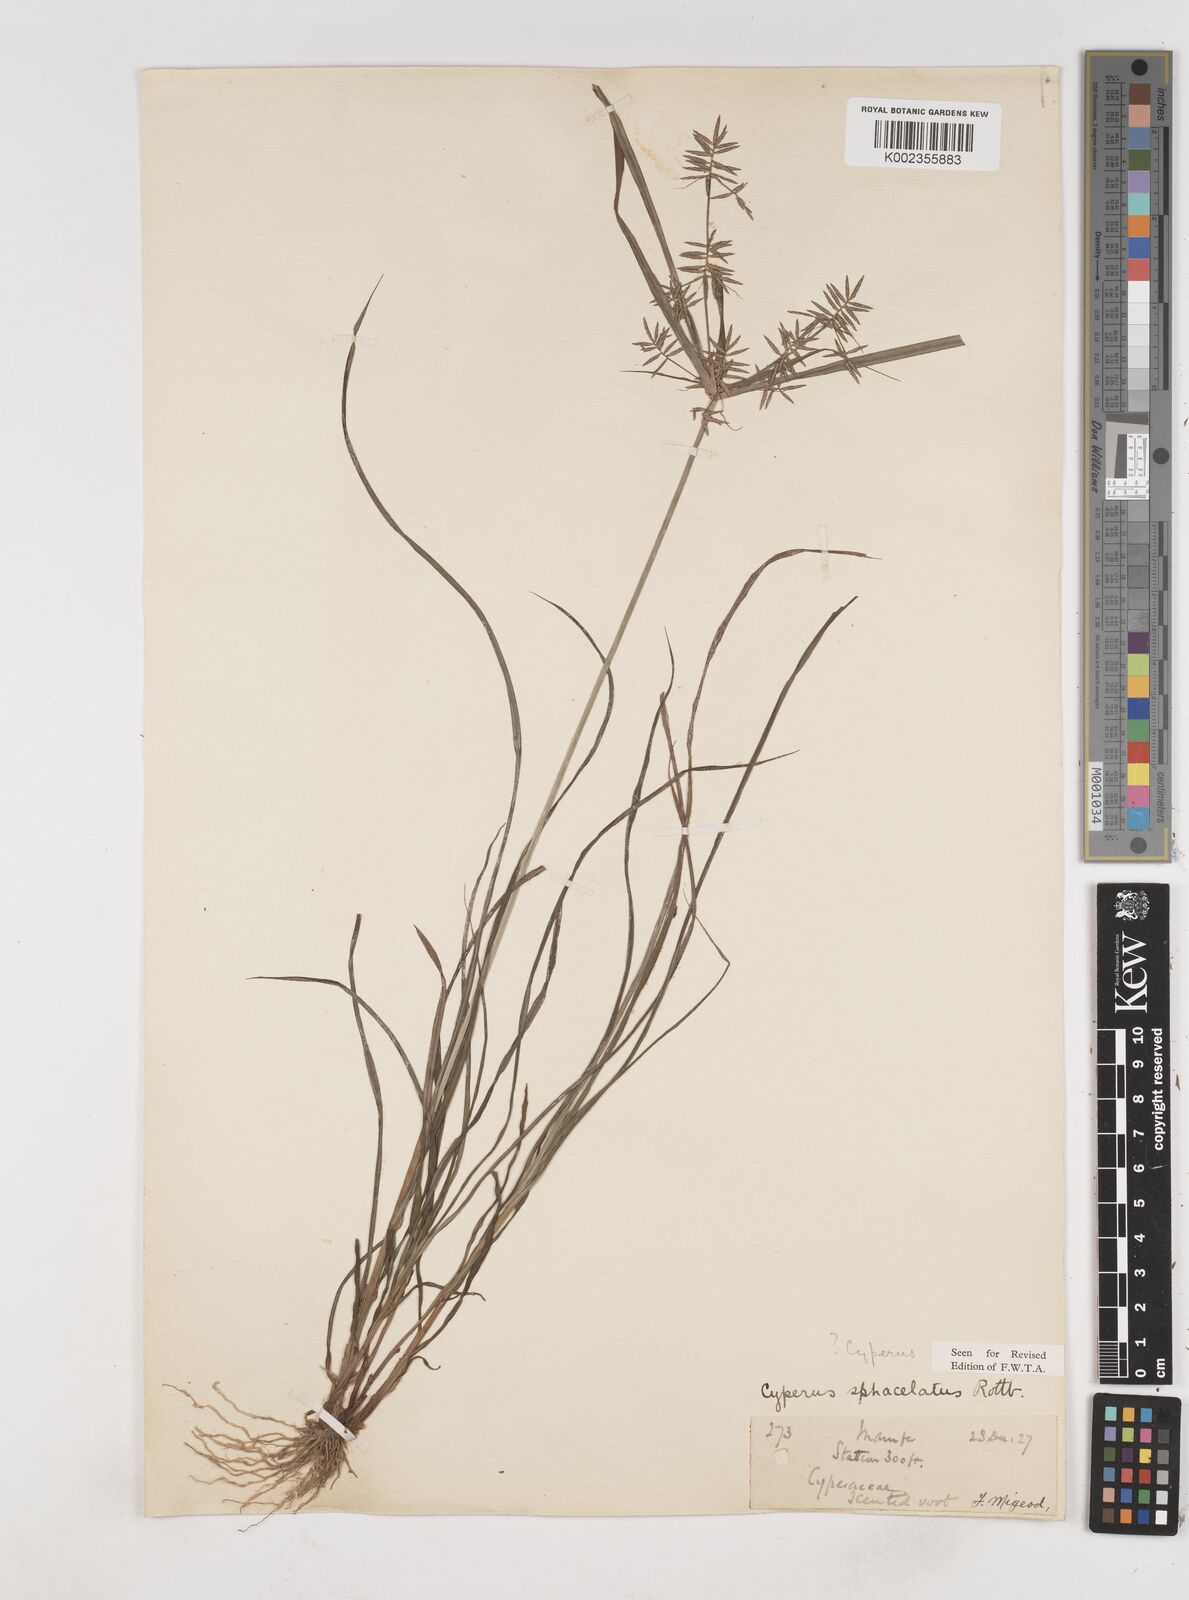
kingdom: Plantae
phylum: Tracheophyta
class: Liliopsida
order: Poales
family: Cyperaceae
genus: Cyperus
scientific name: Cyperus sphacelatus
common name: Roadside flatsedge
